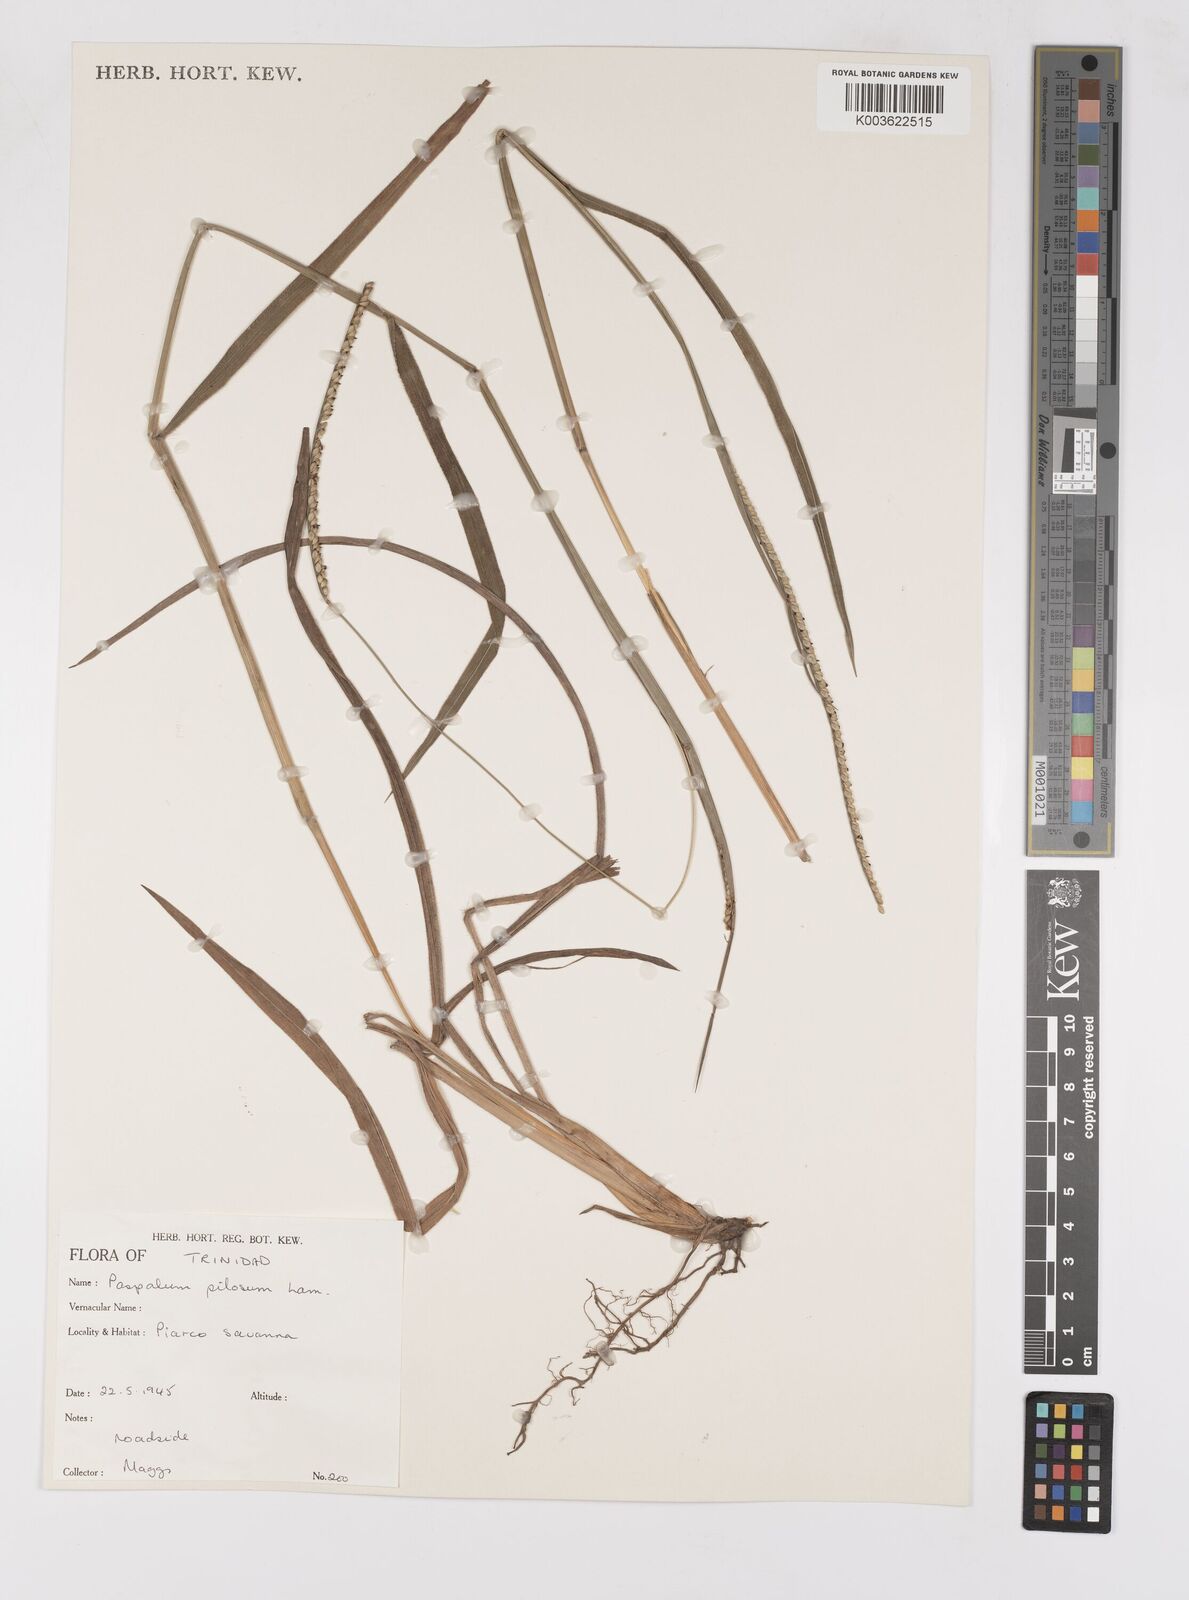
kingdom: Plantae
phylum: Tracheophyta
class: Liliopsida
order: Poales
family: Poaceae
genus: Paspalum
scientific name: Paspalum pilosum
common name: Crowngrass
